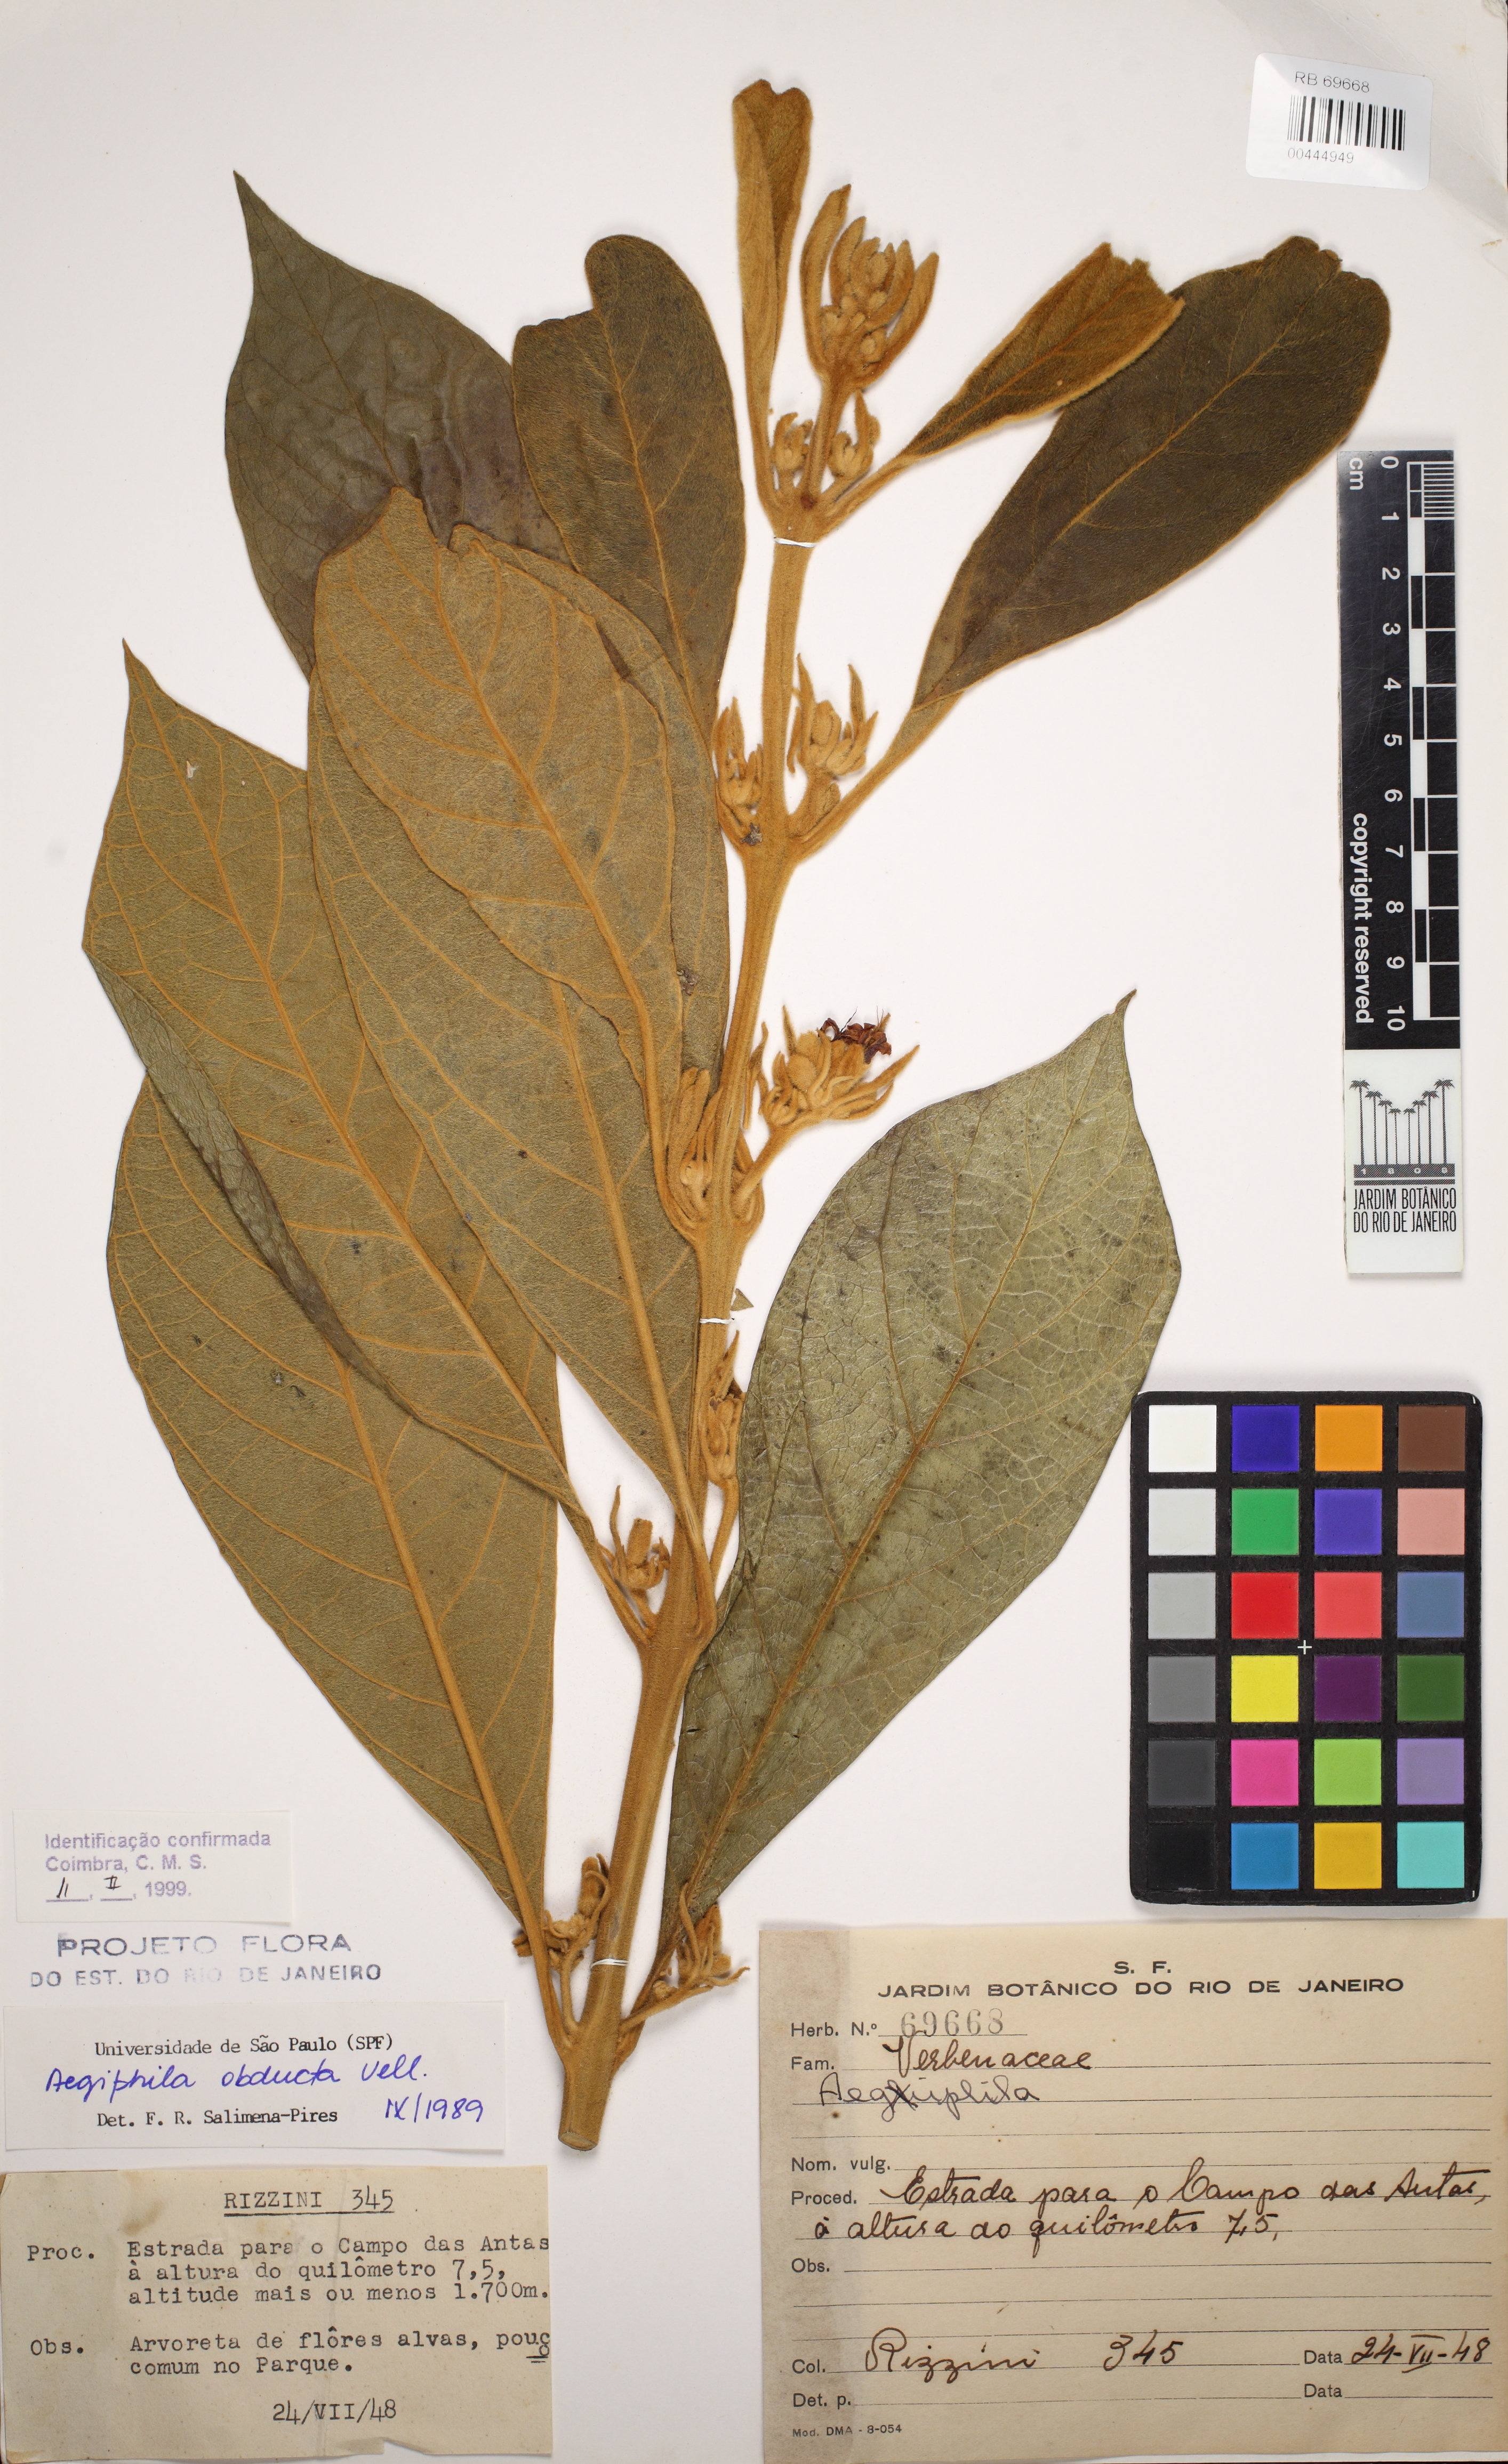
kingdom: Plantae
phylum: Tracheophyta
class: Magnoliopsida
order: Lamiales
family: Lamiaceae
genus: Aegiphila
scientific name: Aegiphila obducta
